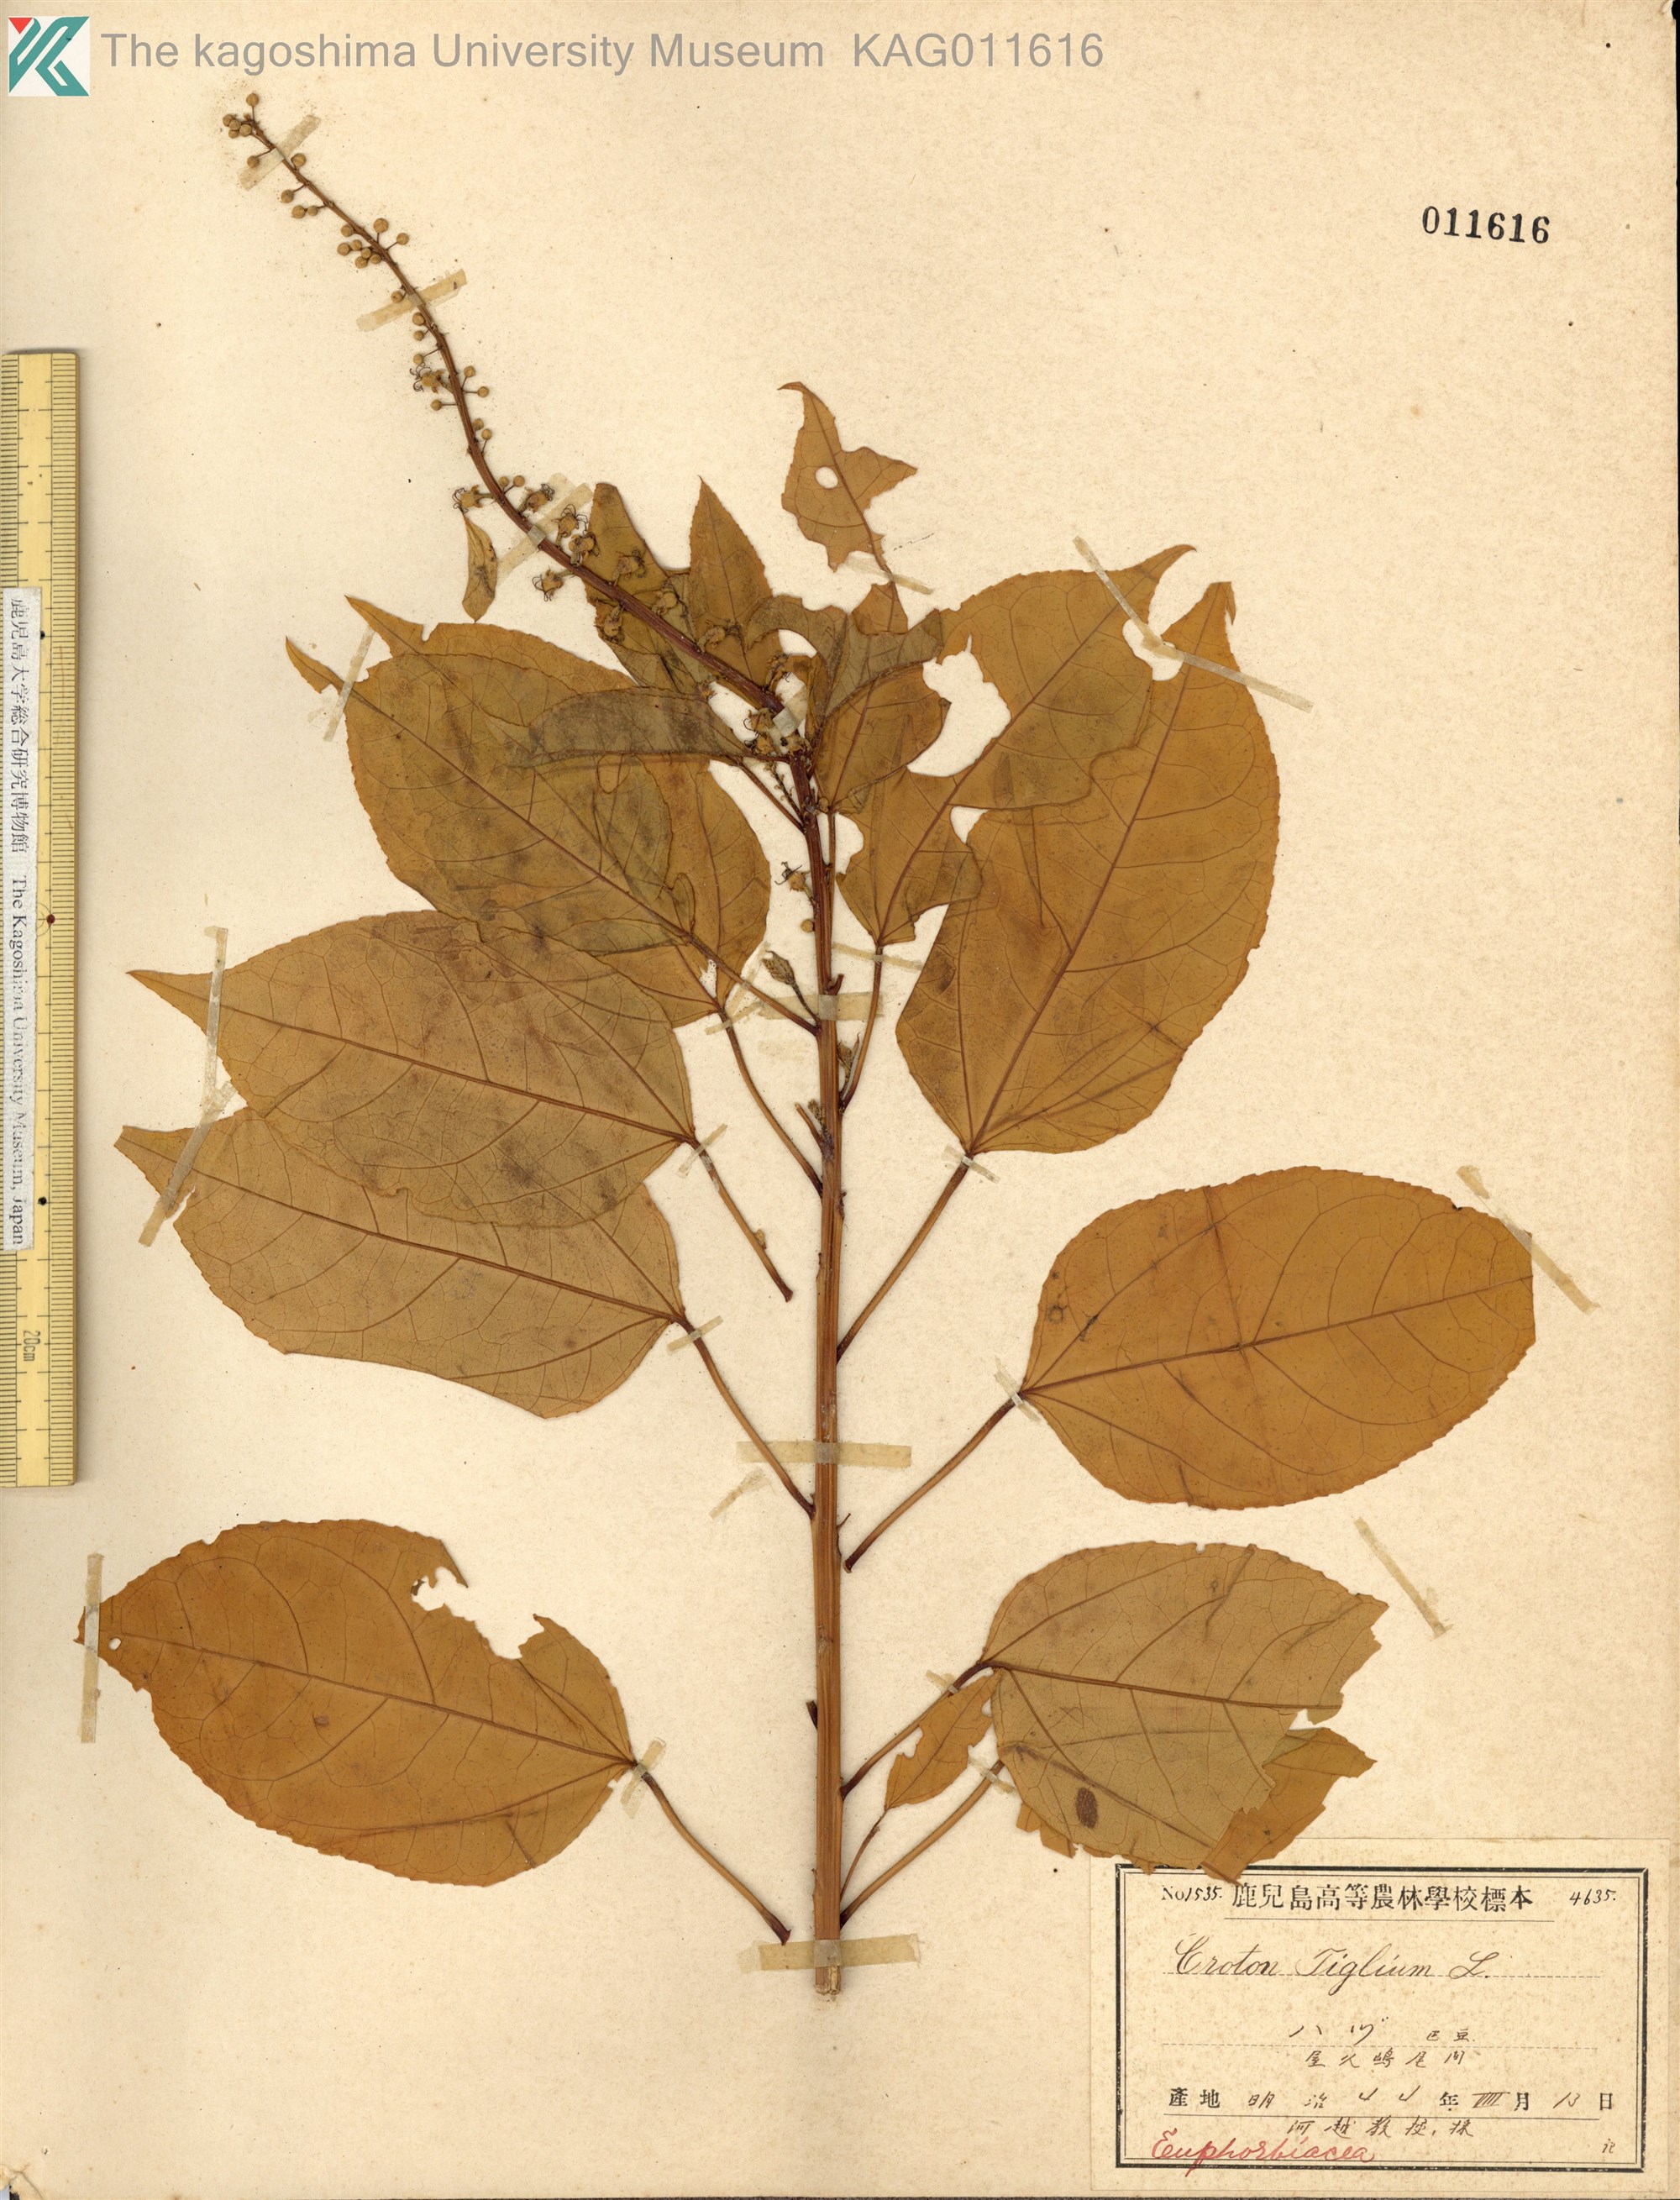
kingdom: Plantae
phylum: Tracheophyta
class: Magnoliopsida
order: Malpighiales
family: Euphorbiaceae
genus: Croton
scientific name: Croton tiglium
